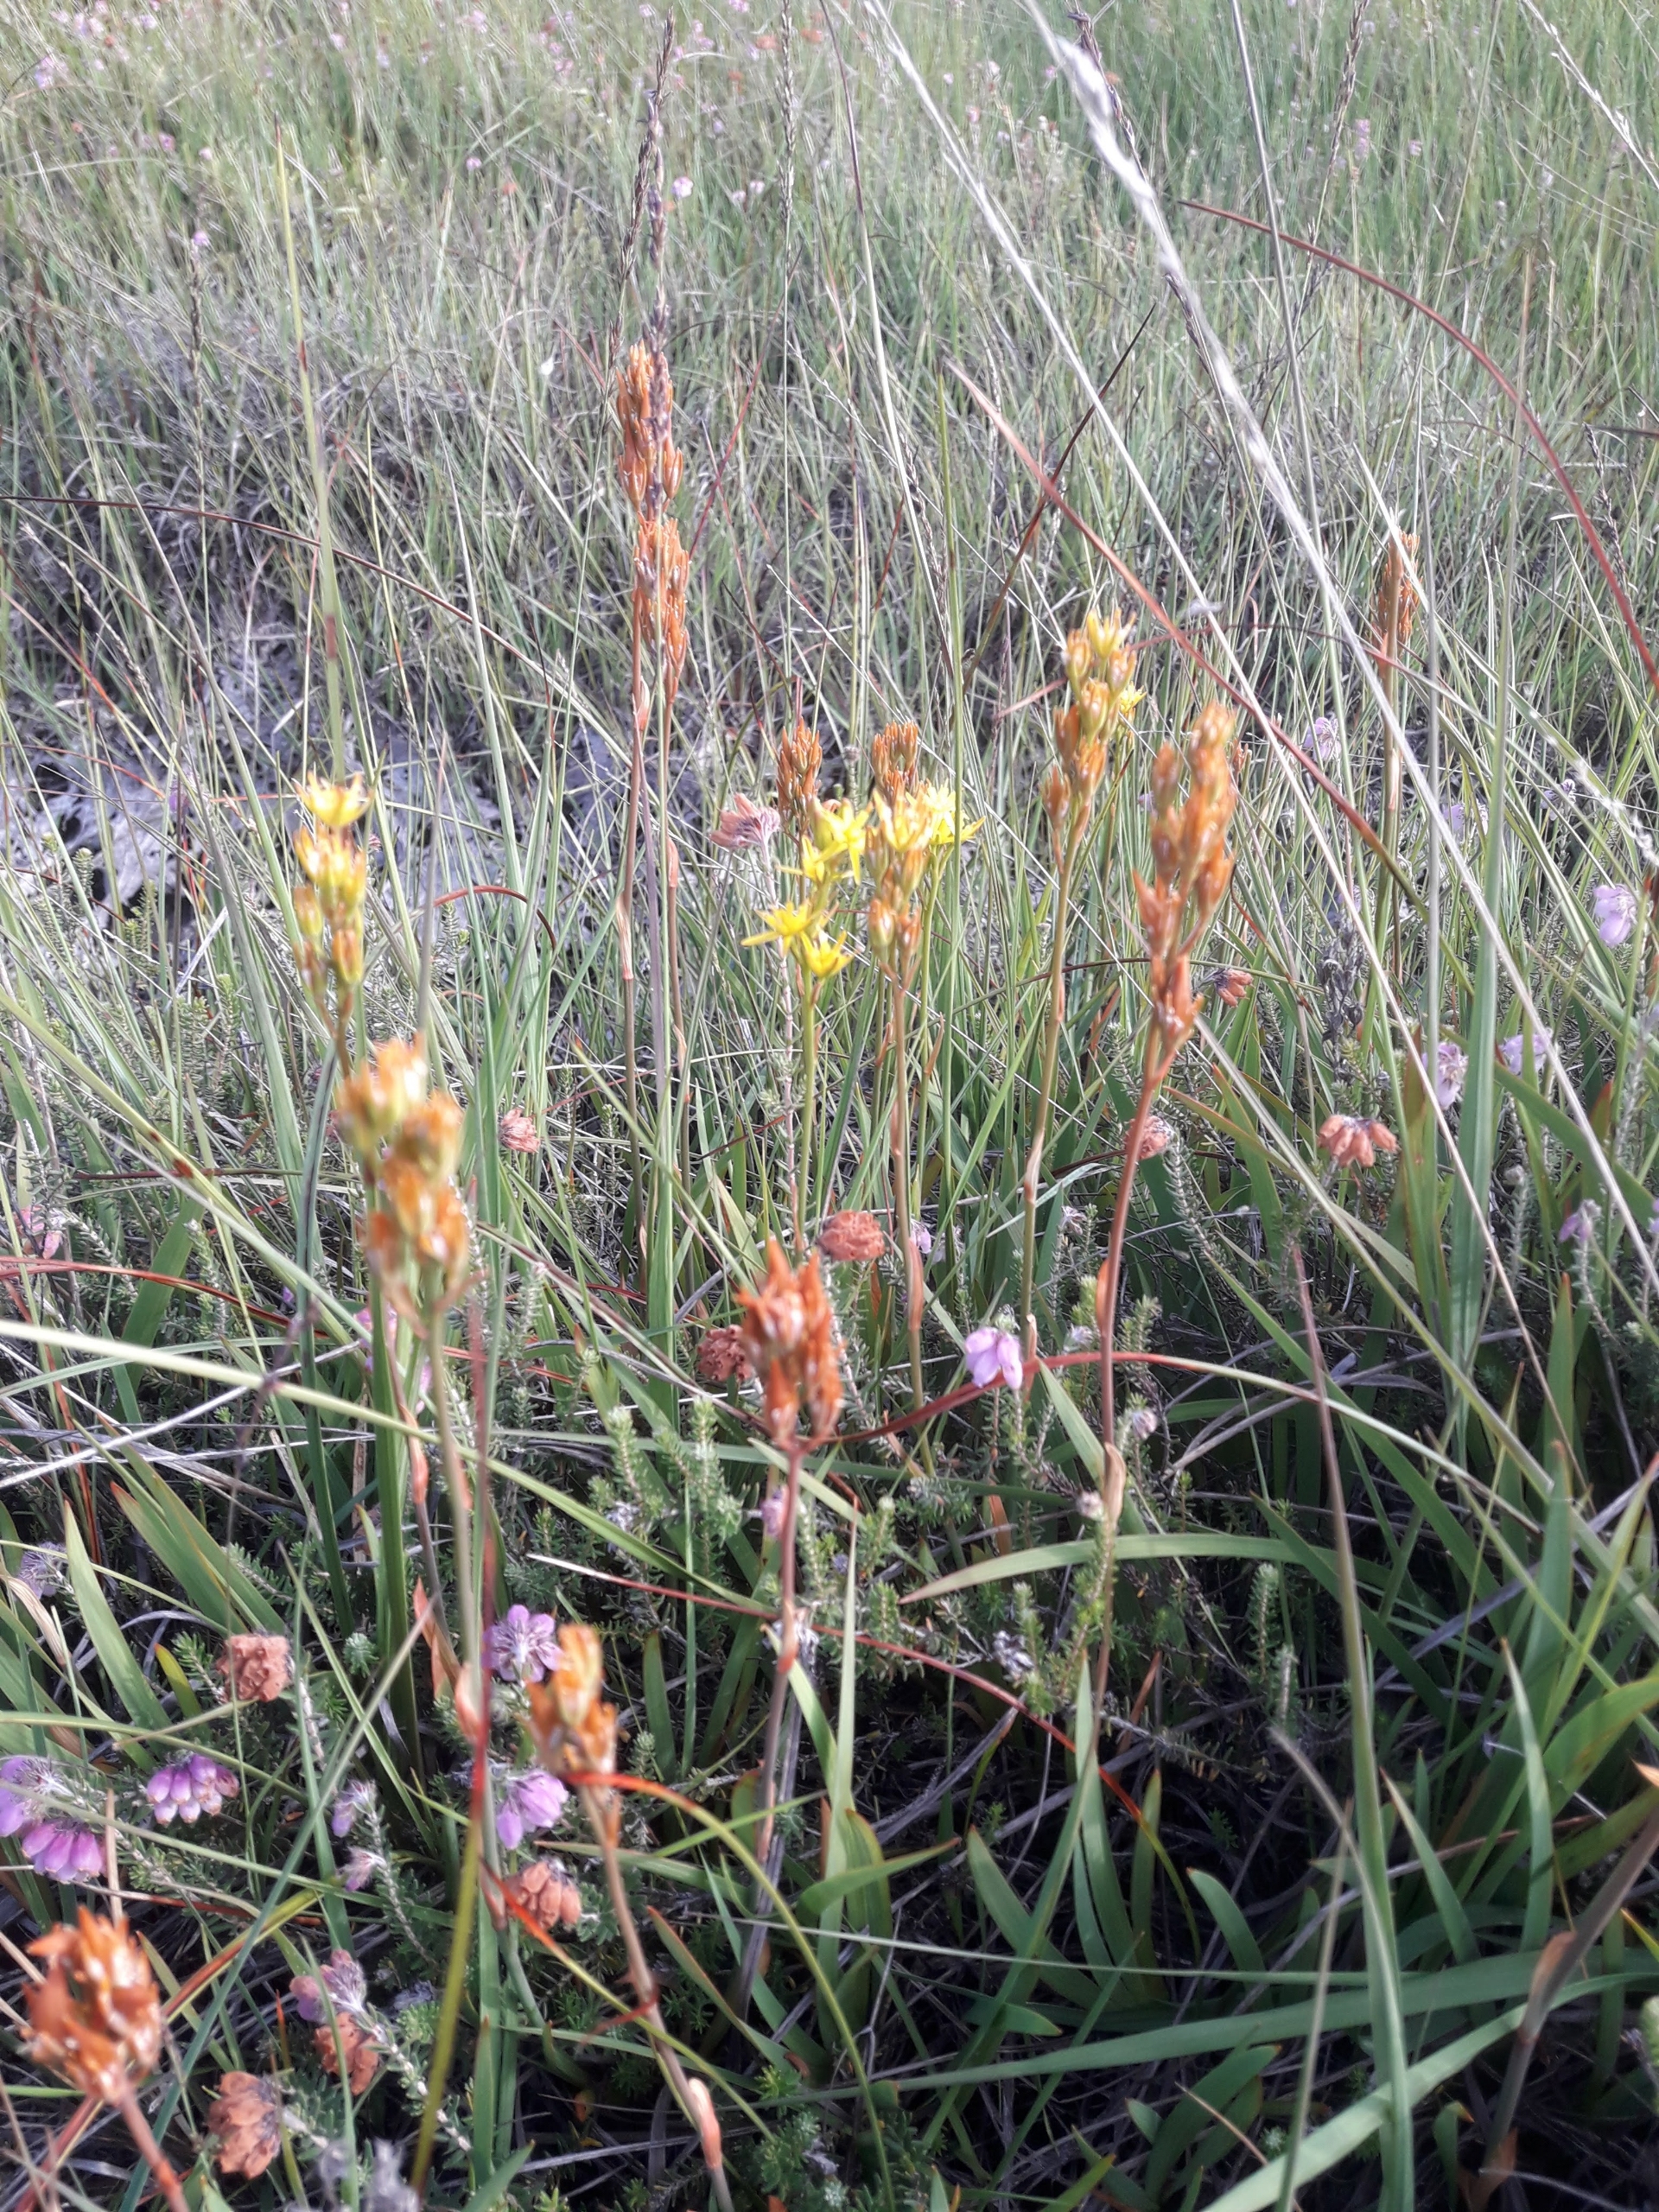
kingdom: Plantae
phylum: Tracheophyta
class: Liliopsida
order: Dioscoreales
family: Nartheciaceae
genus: Narthecium
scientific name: Narthecium ossifragum
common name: Benbræk
